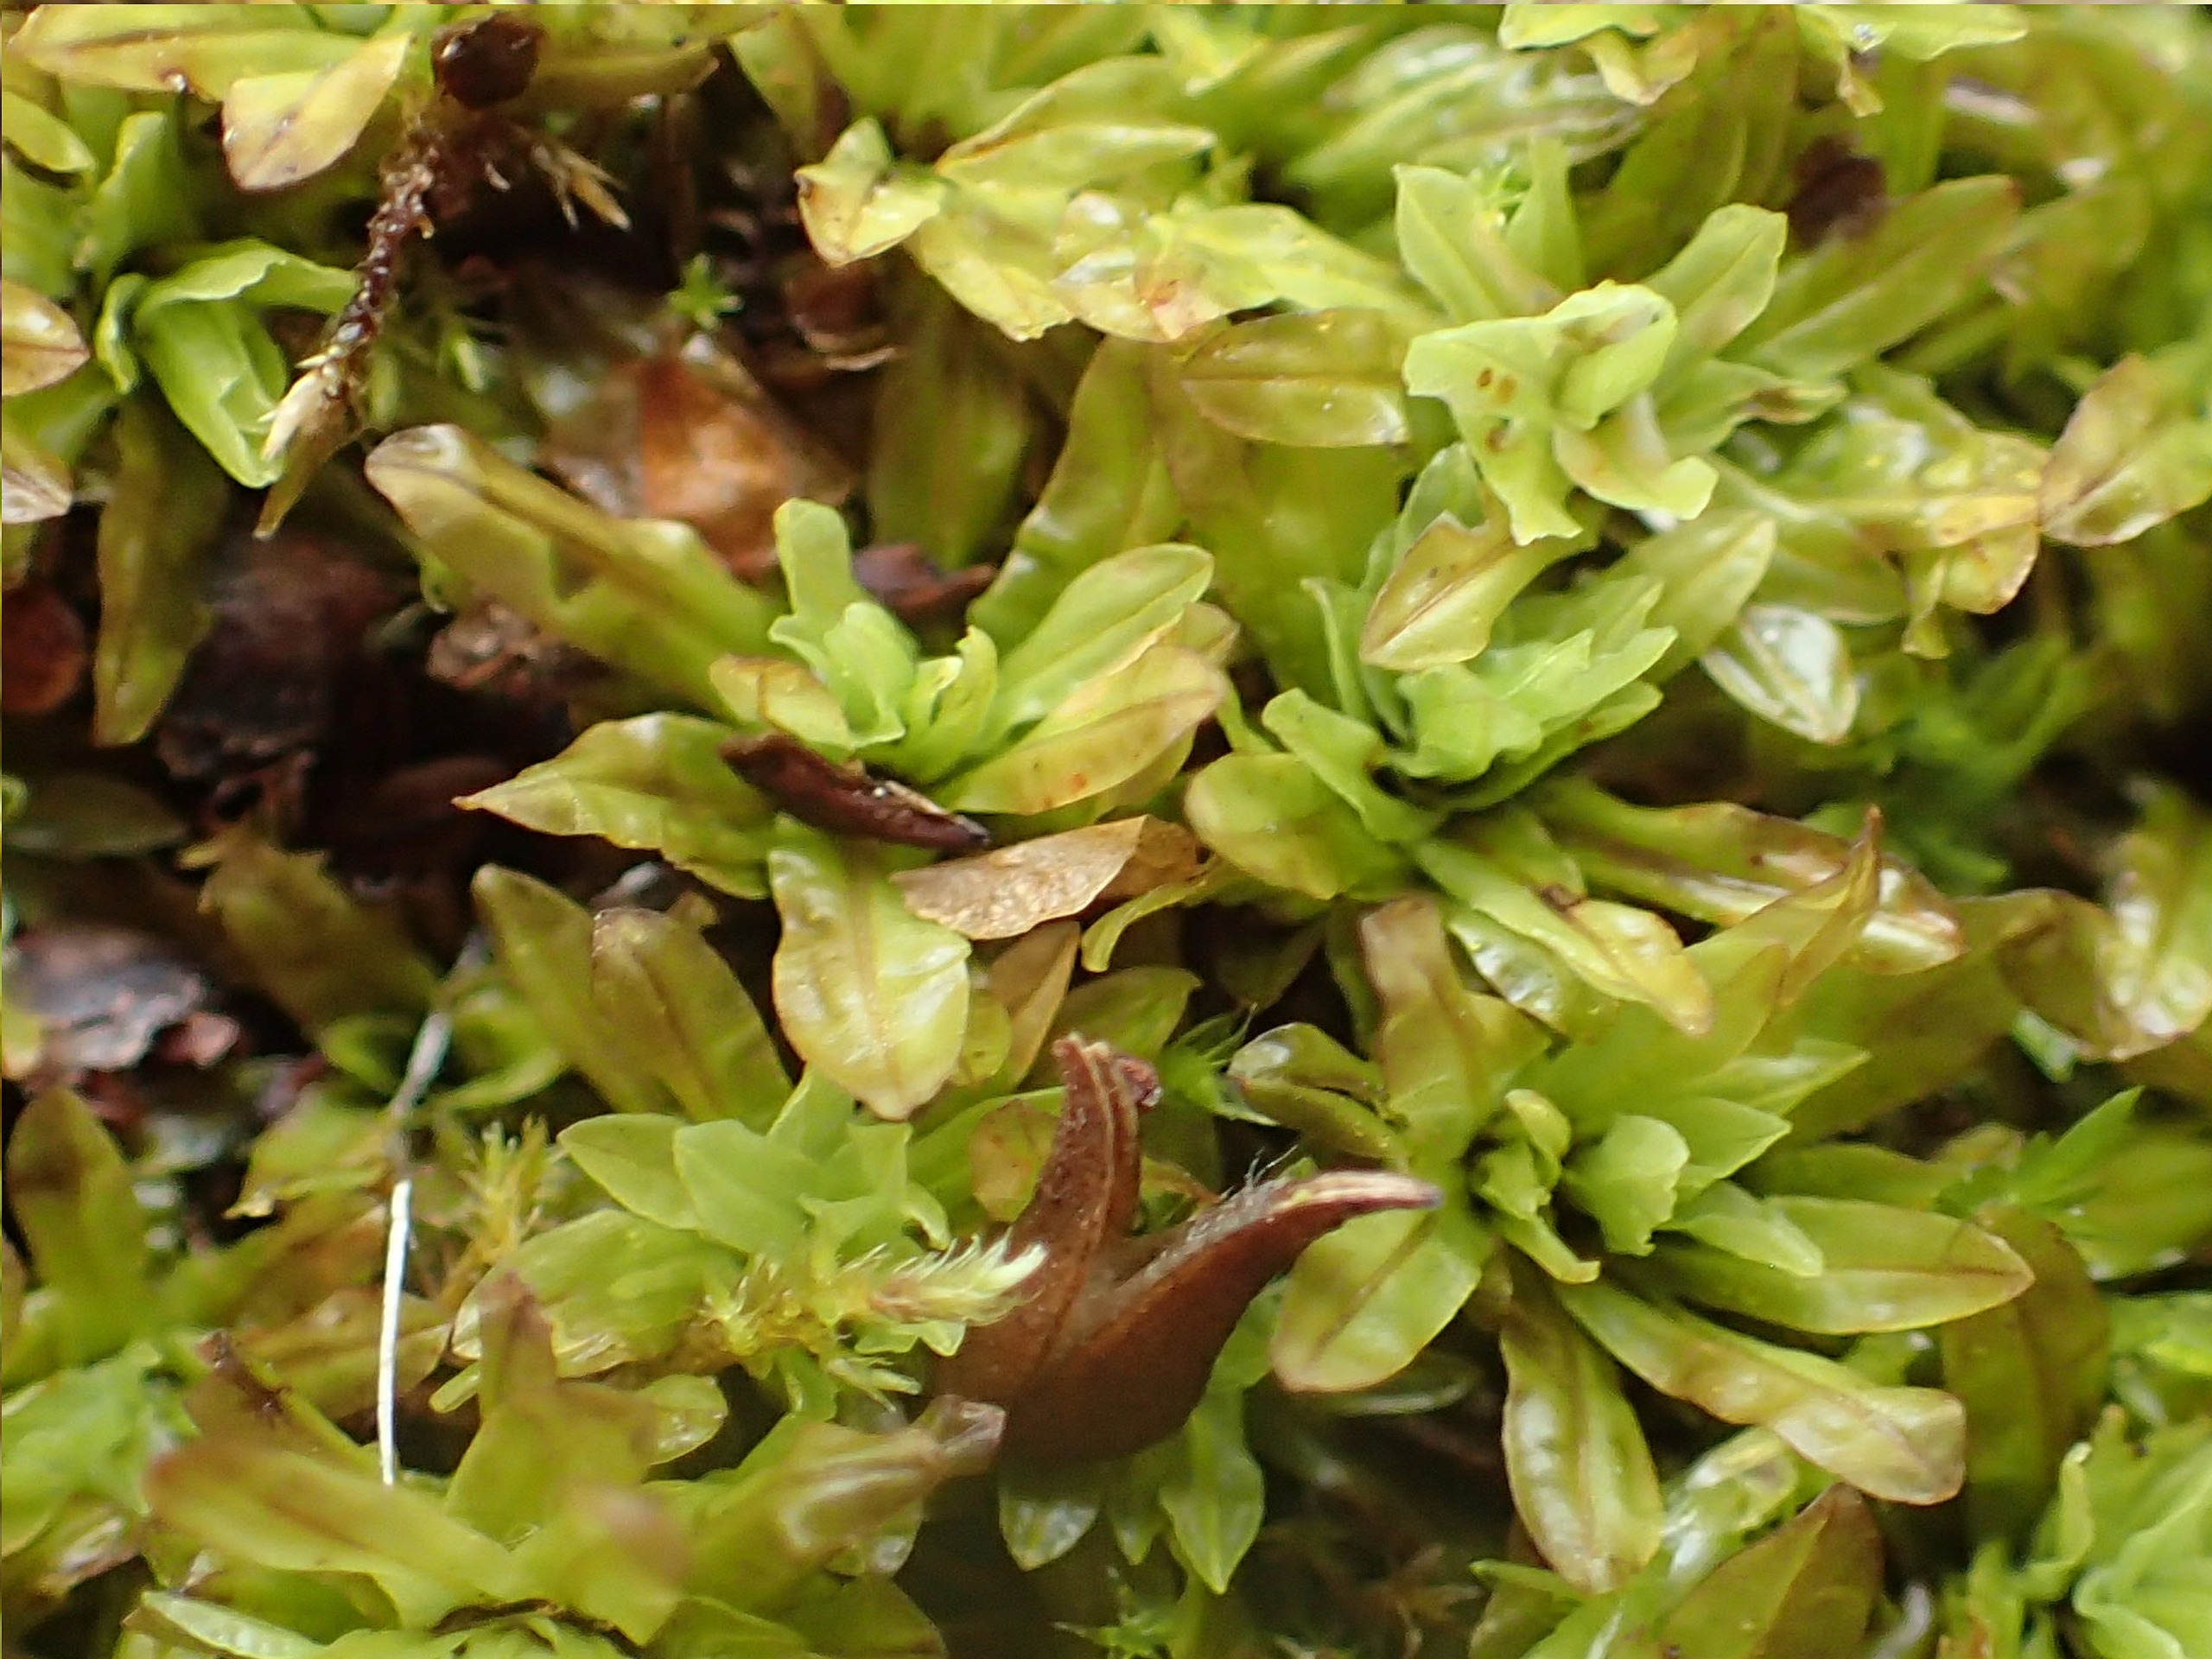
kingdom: Plantae
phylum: Bryophyta
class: Bryopsida
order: Encalyptales
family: Encalyptaceae
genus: Encalypta
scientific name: Encalypta streptocarpa
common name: Stor klokkehætte
